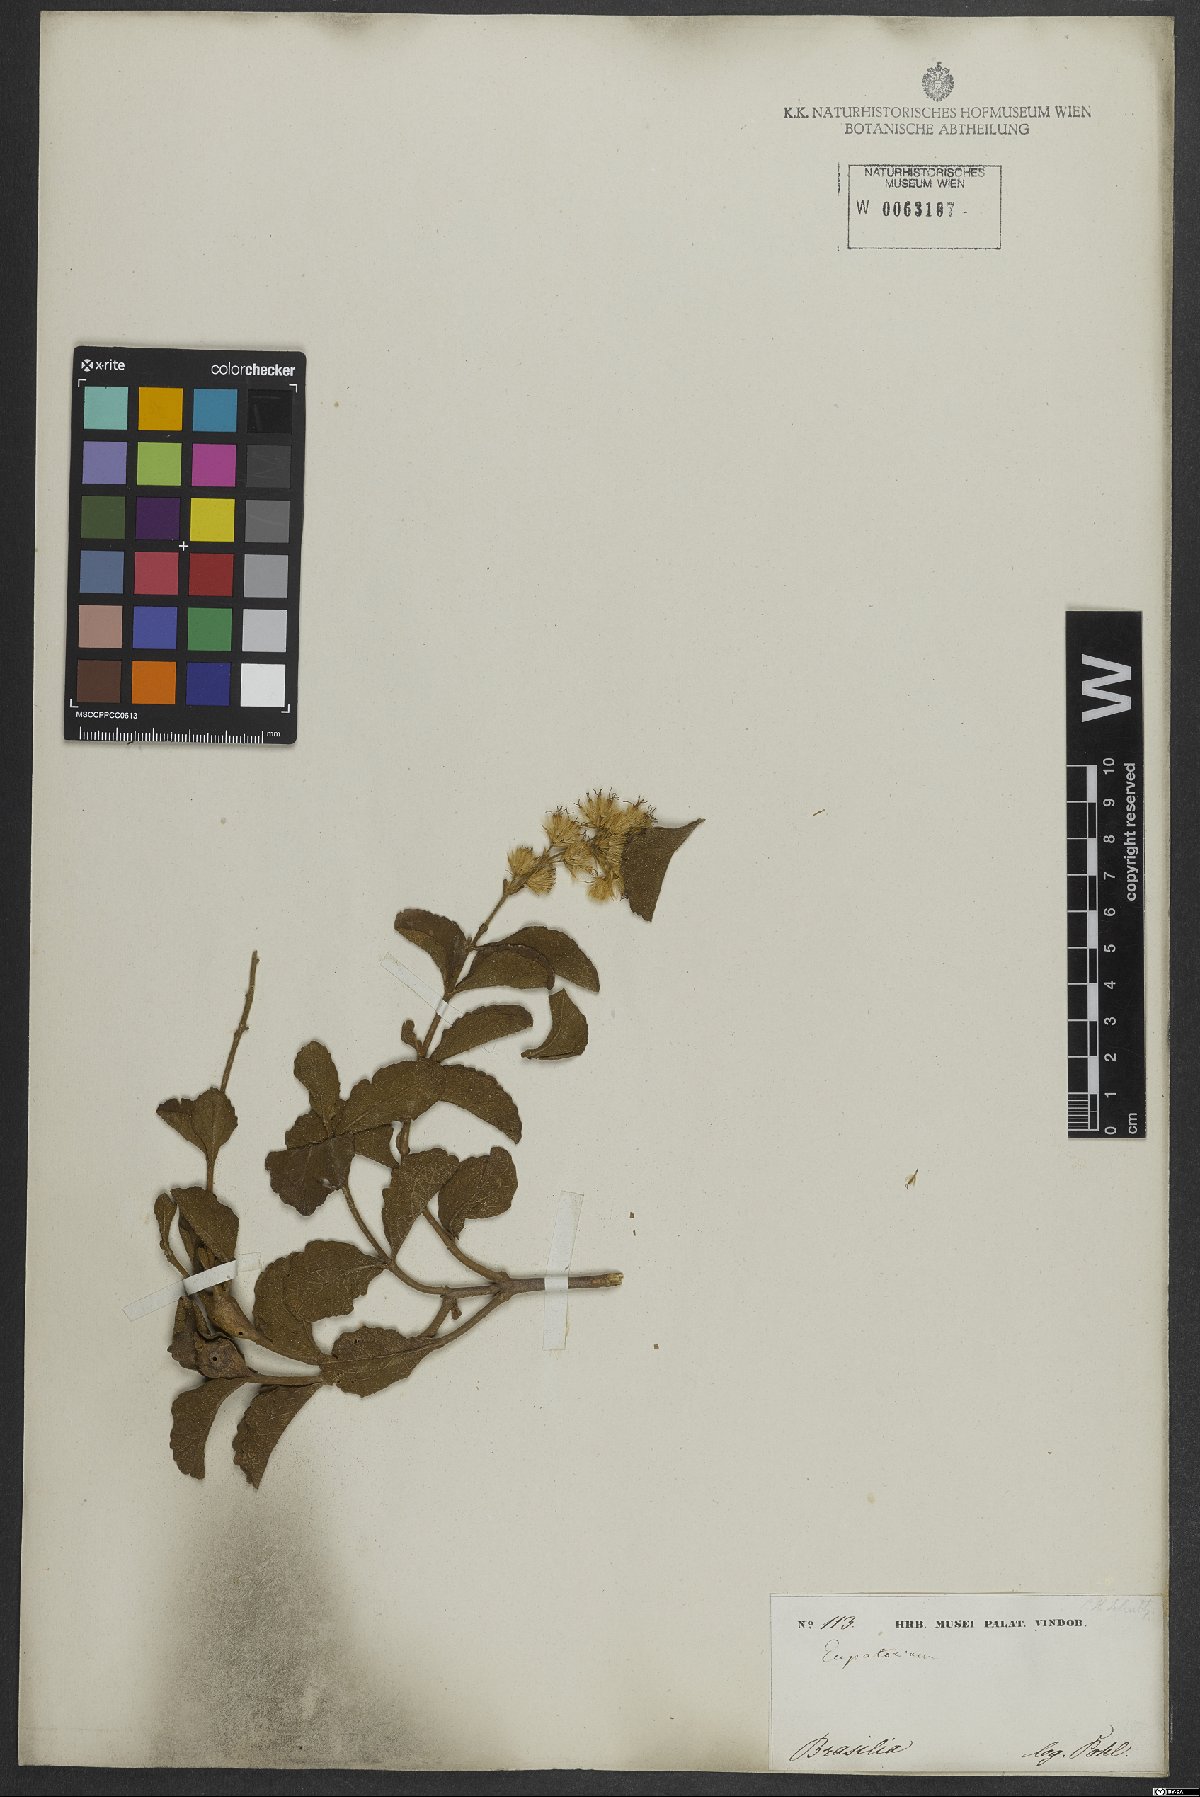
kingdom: Plantae
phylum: Tracheophyta
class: Magnoliopsida
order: Asterales
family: Asteraceae
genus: Stomatanthes
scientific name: Stomatanthes dictyophyllus
